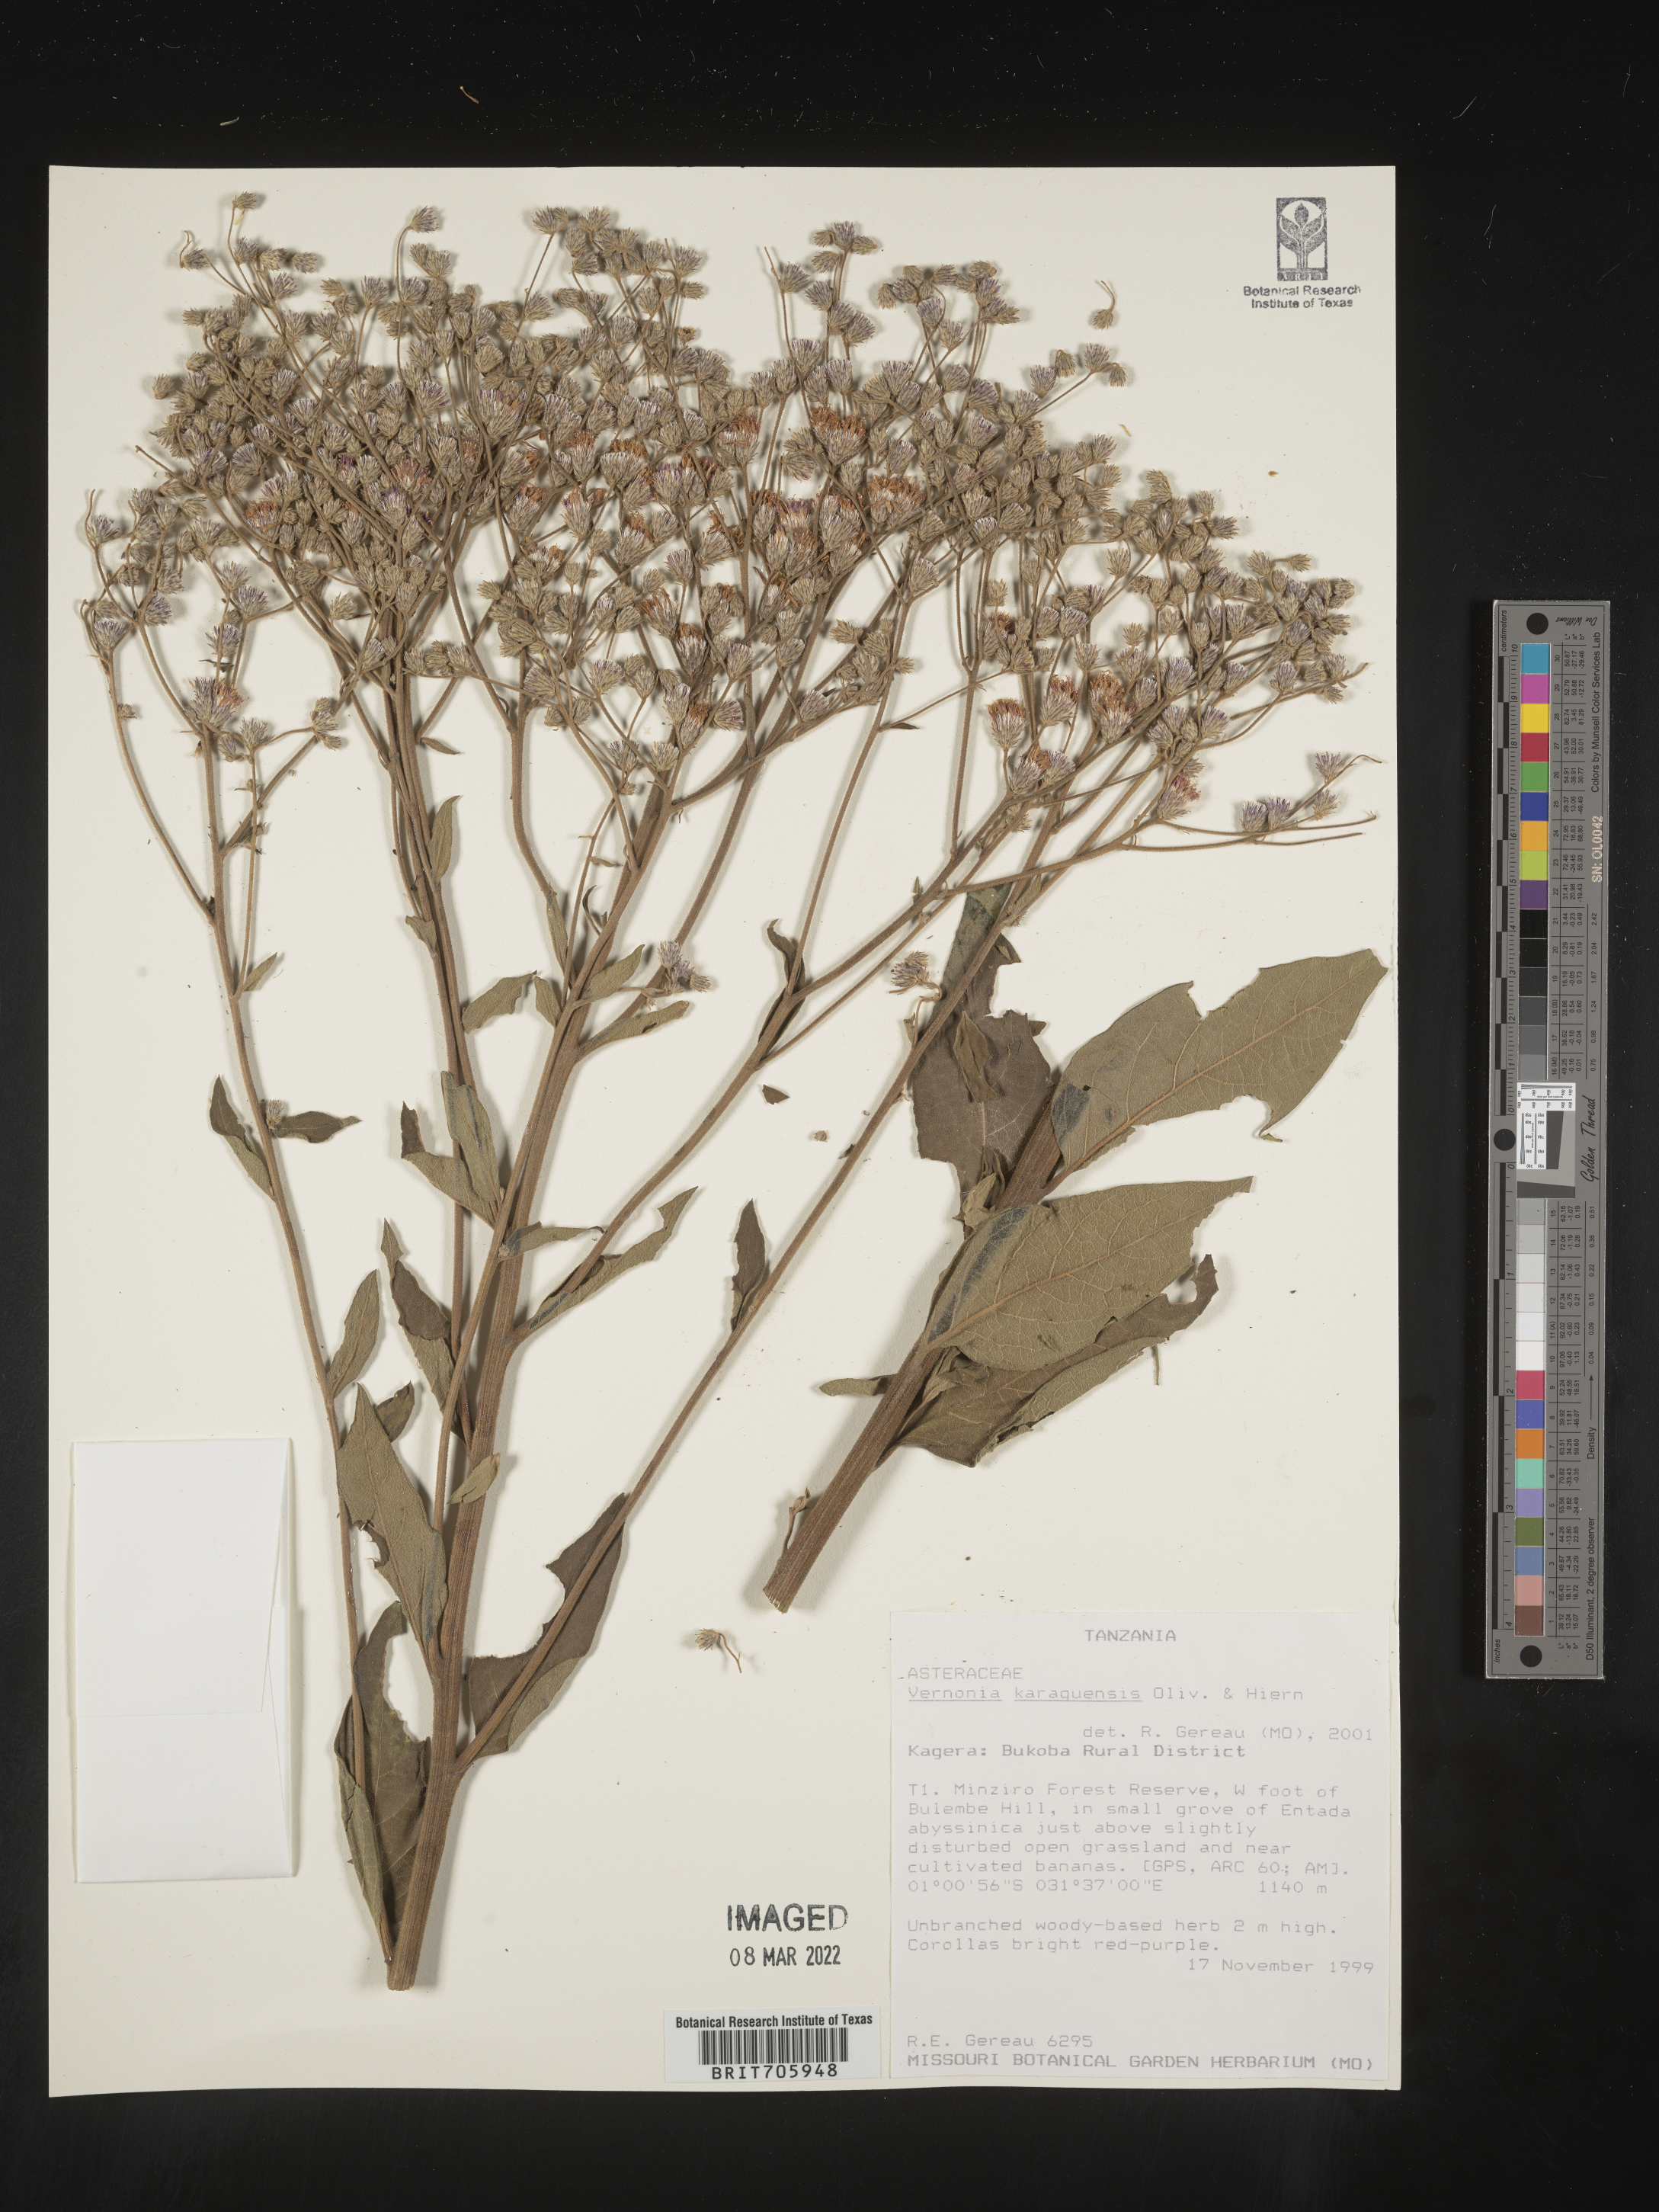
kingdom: Plantae
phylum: Tracheophyta
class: Magnoliopsida
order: Asterales
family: Asteraceae
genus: Vernonia
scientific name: Vernonia
